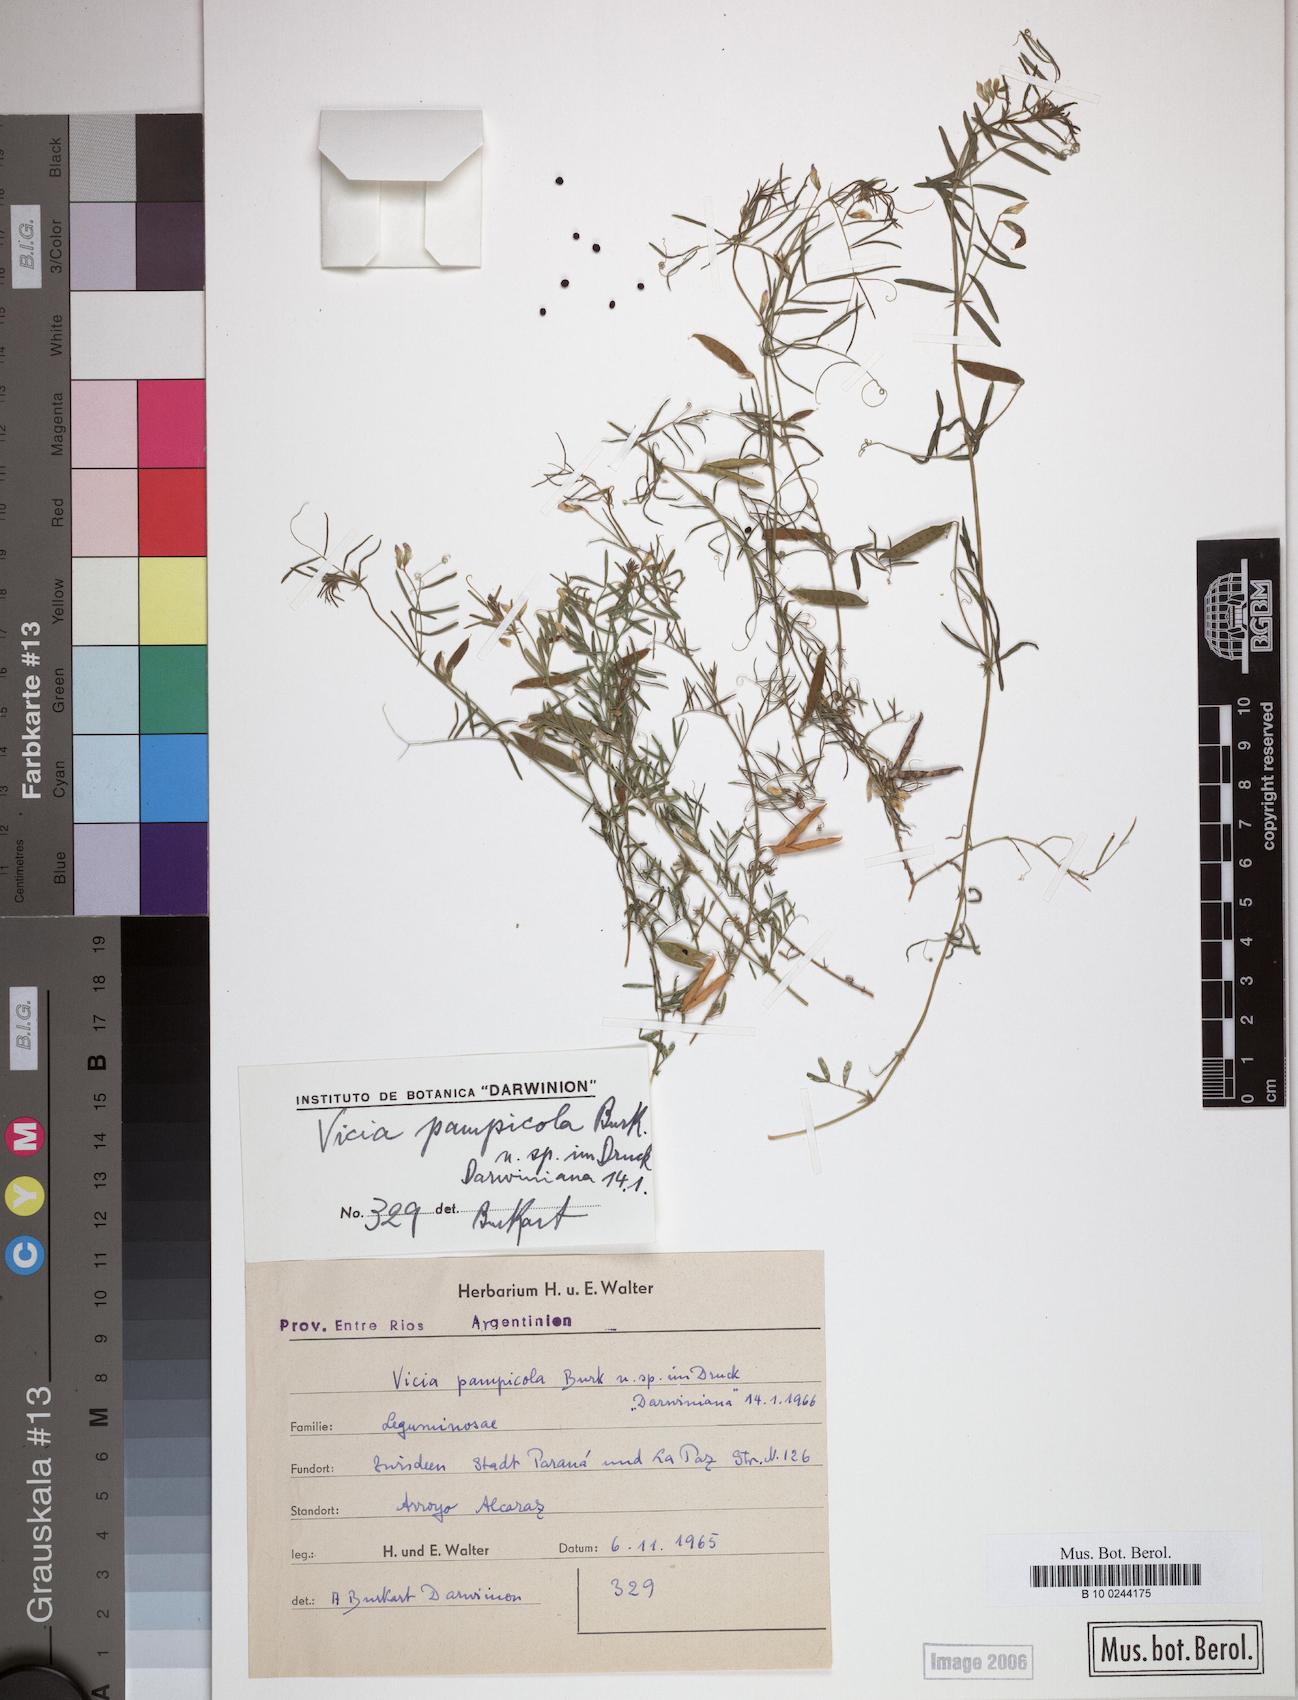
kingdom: Plantae
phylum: Tracheophyta
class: Magnoliopsida
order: Fabales
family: Fabaceae
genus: Vicia
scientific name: Vicia pampicola
